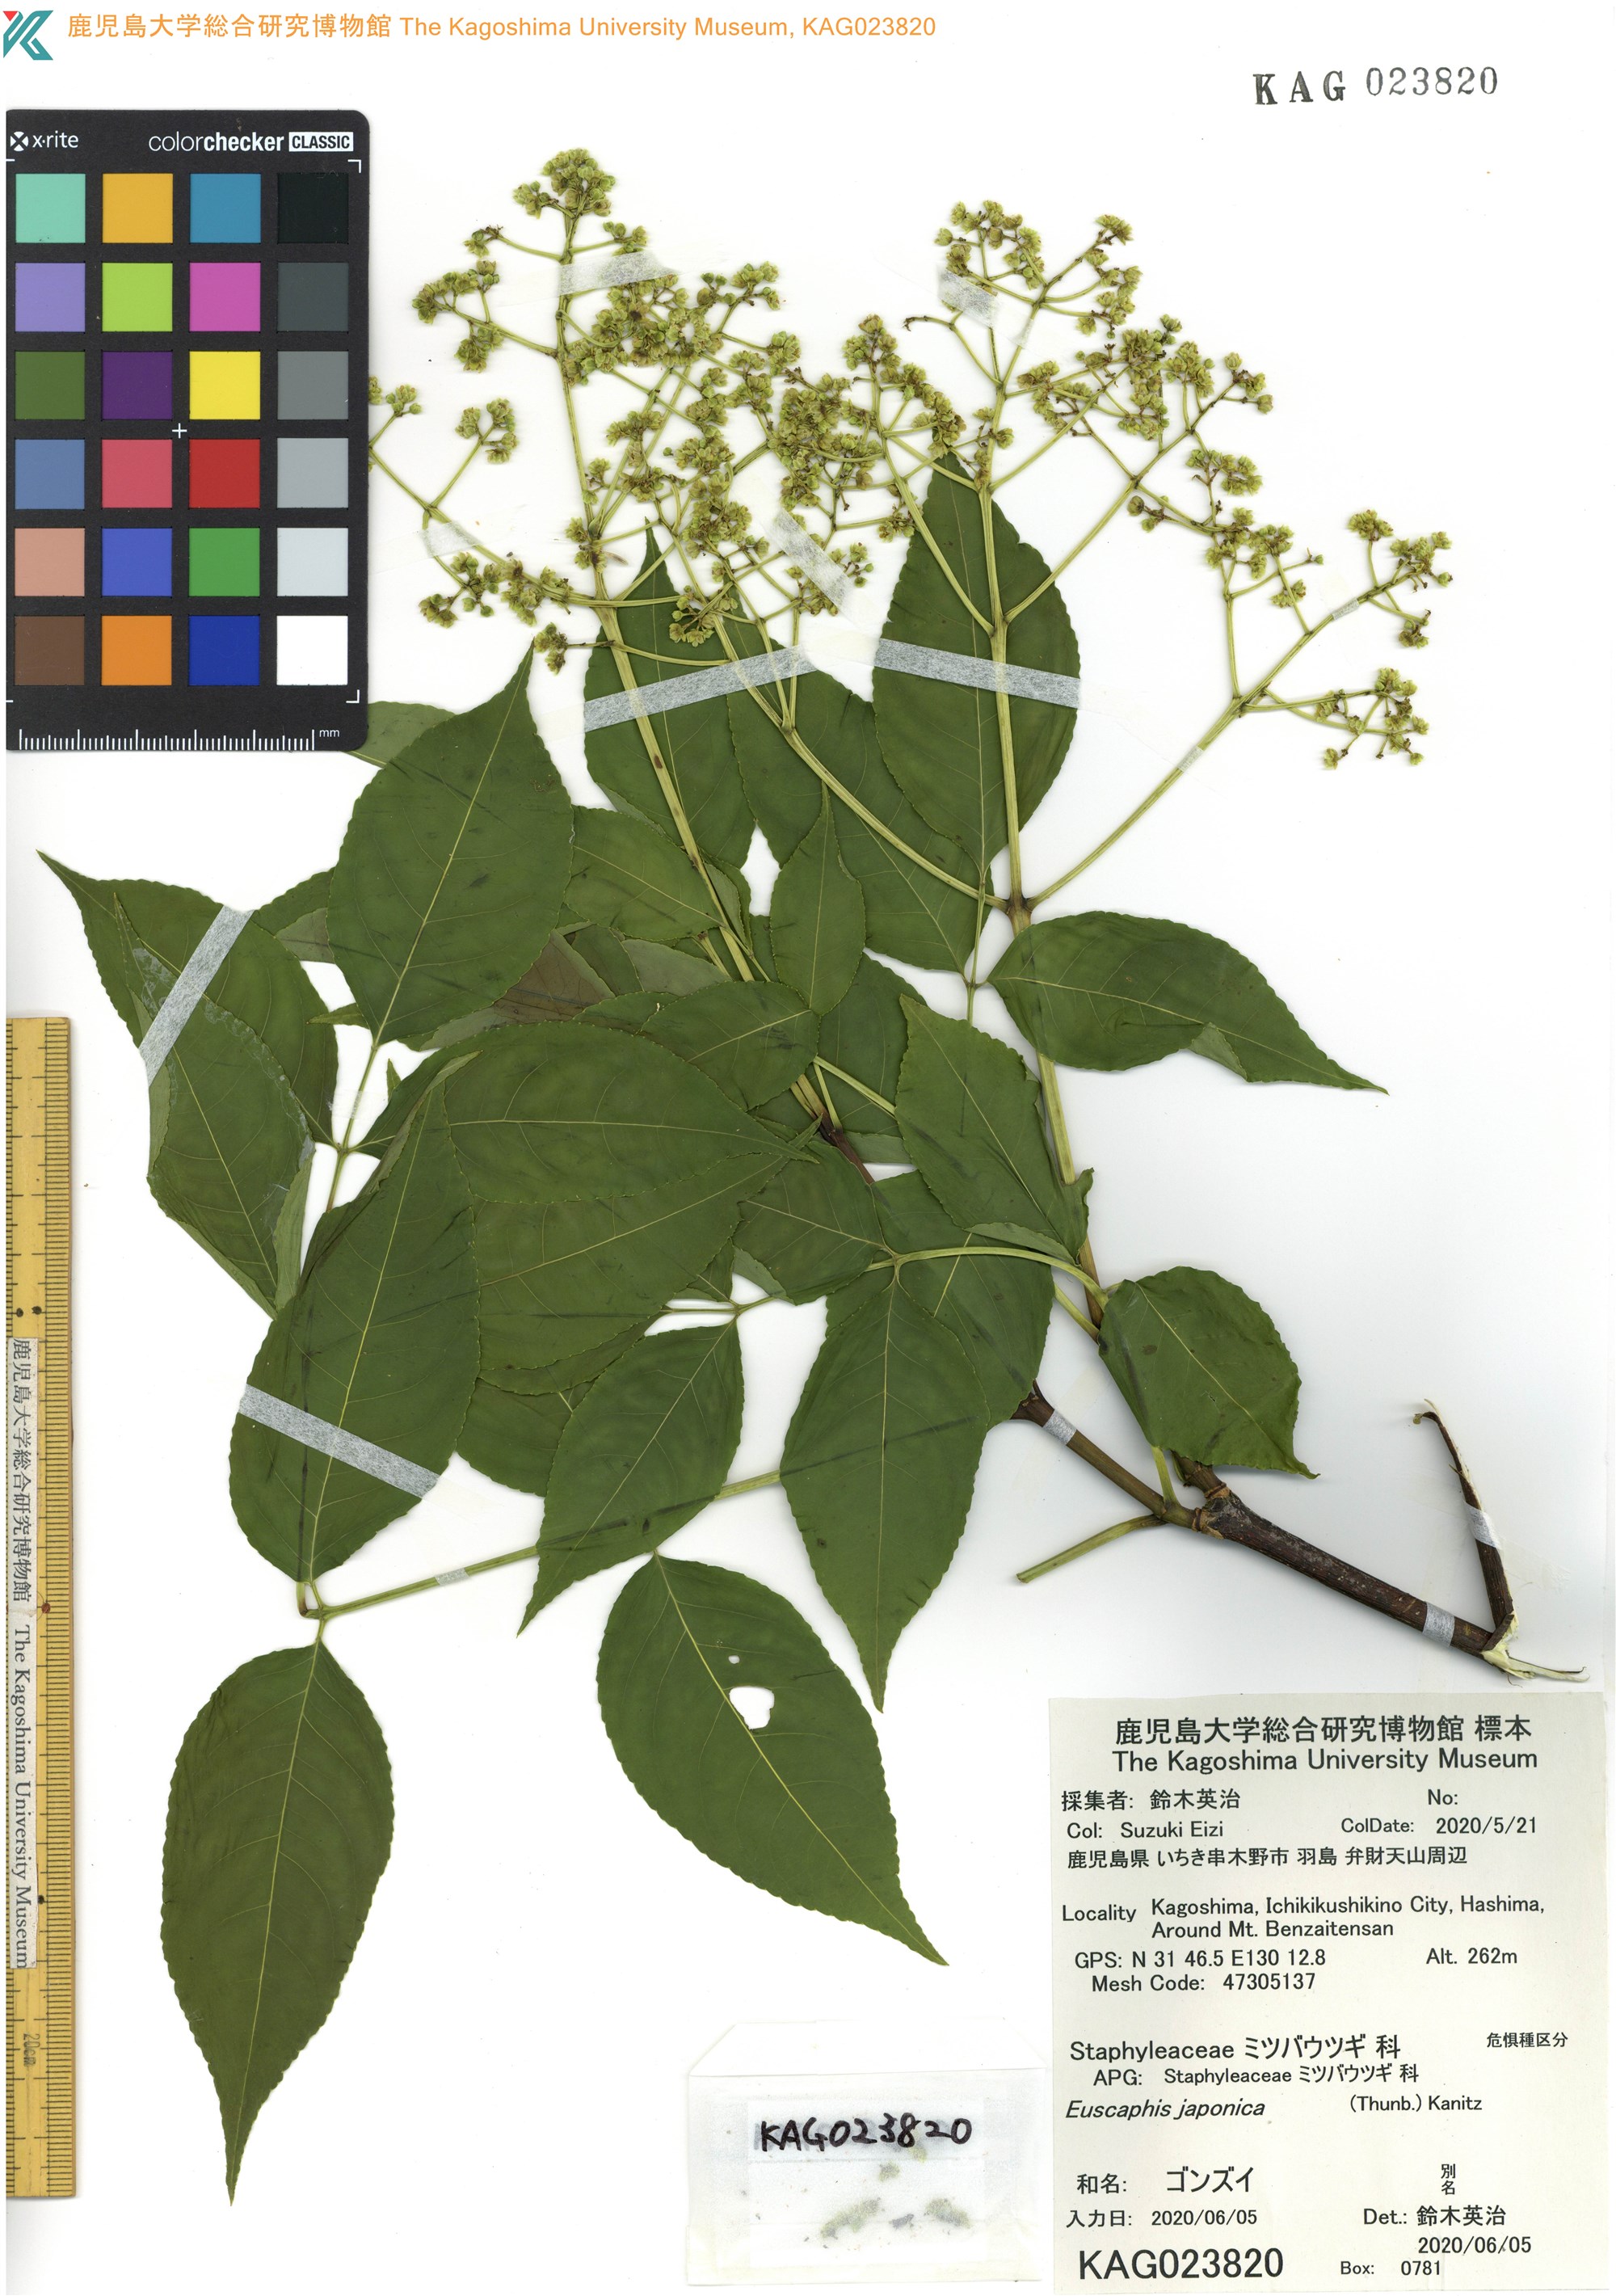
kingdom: Plantae
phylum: Tracheophyta
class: Magnoliopsida
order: Crossosomatales
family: Staphyleaceae
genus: Staphylea
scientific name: Staphylea japonica
